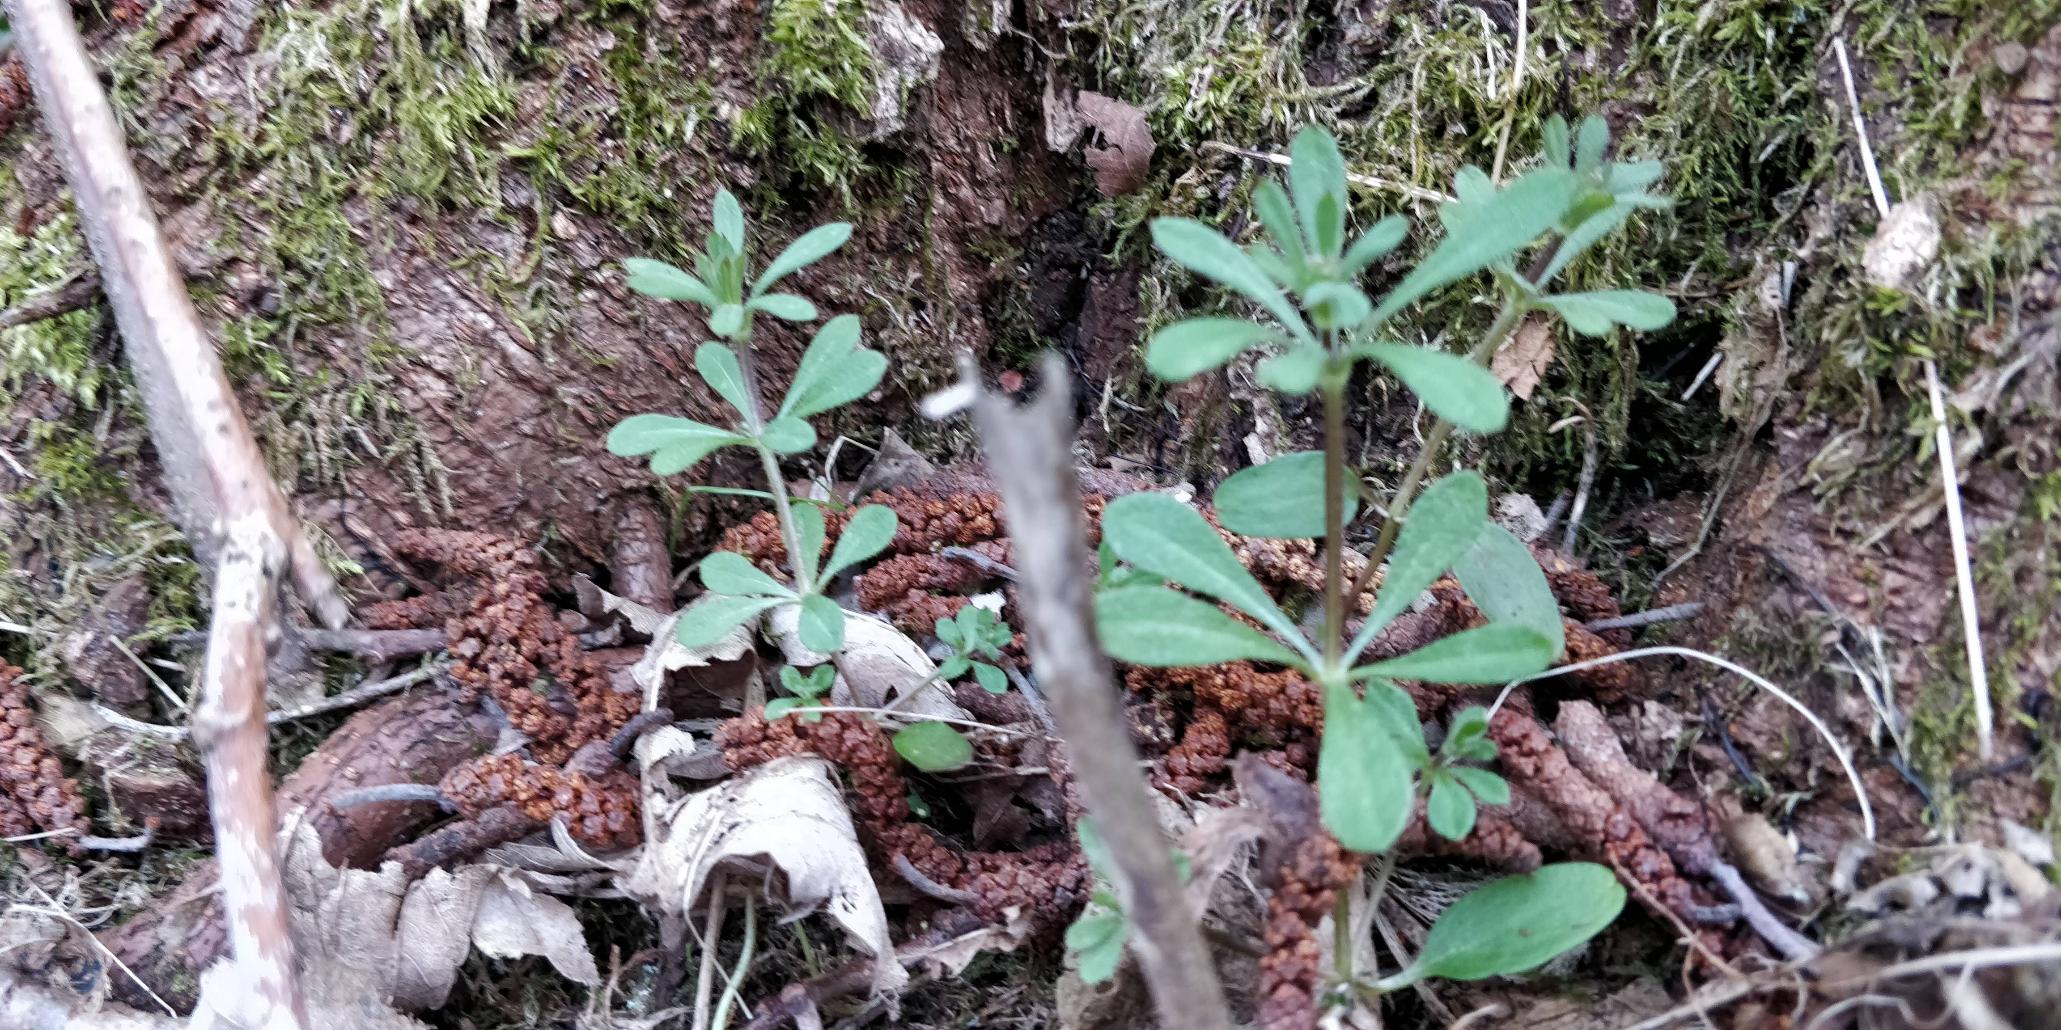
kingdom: Plantae
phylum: Tracheophyta
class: Magnoliopsida
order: Gentianales
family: Rubiaceae
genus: Galium
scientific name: Galium aparine
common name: Burre-snerre
